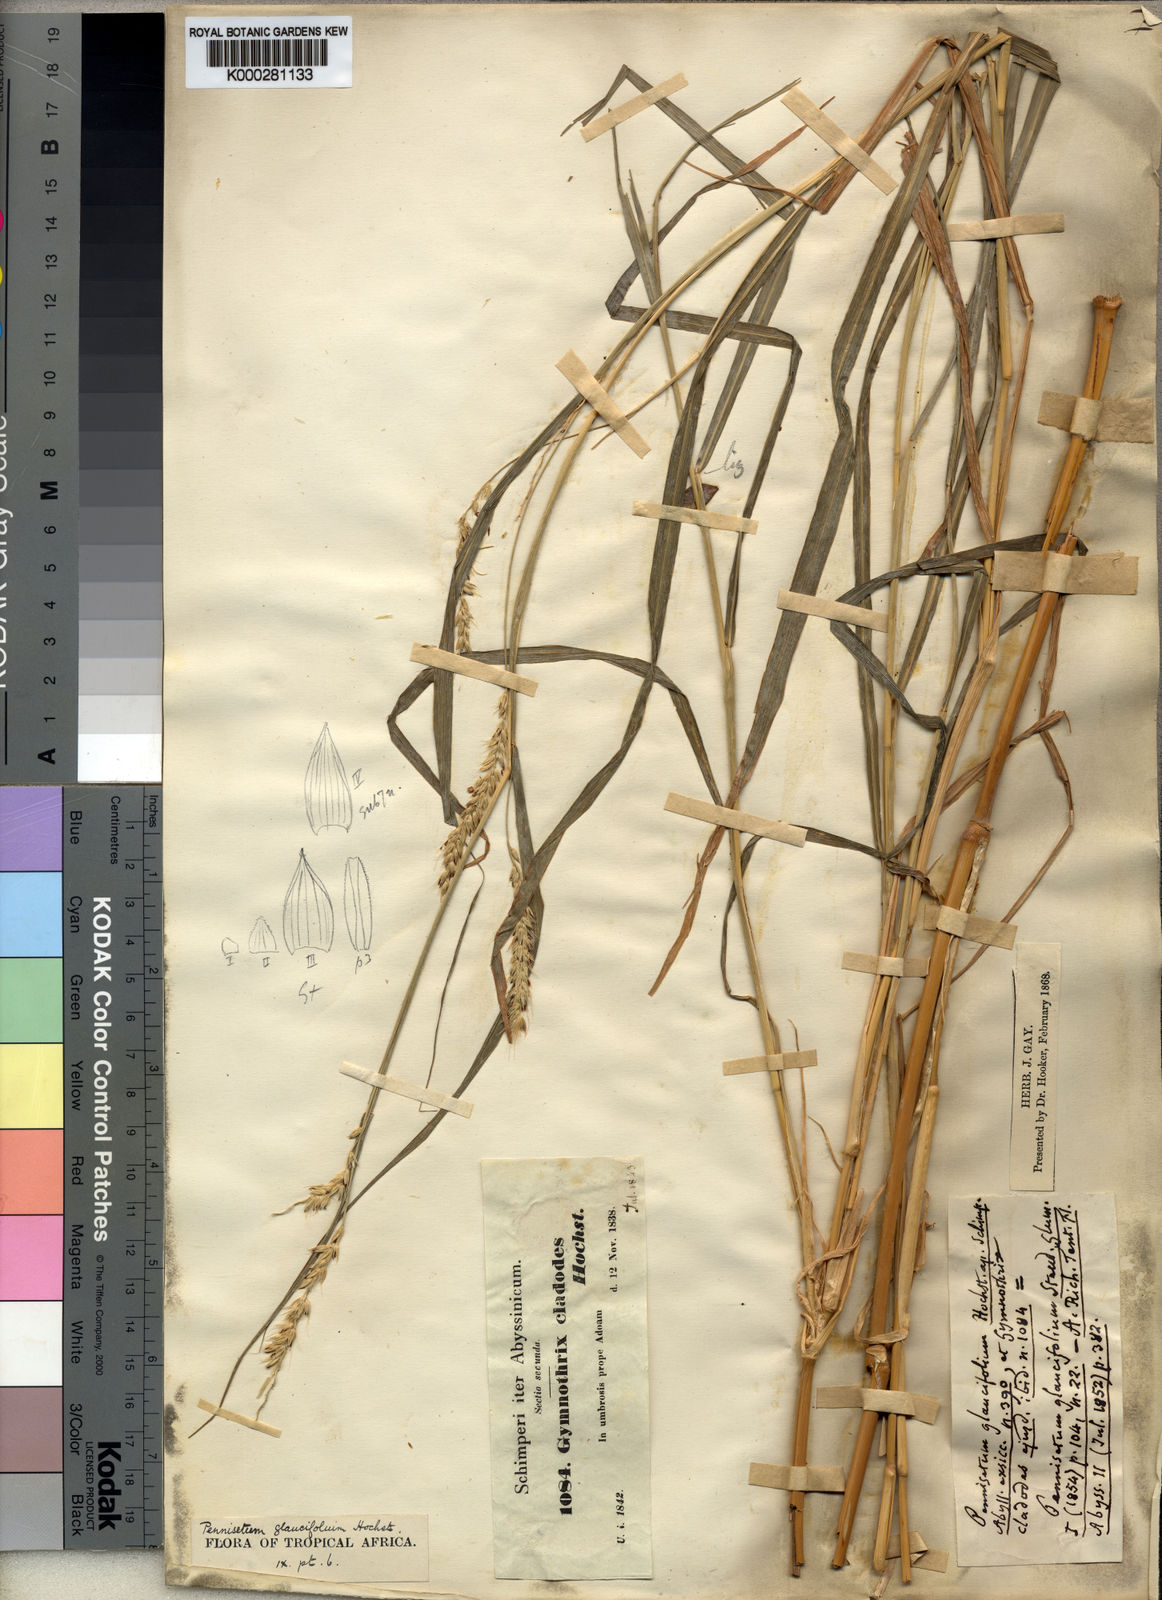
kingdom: Plantae
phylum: Tracheophyta
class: Liliopsida
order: Poales
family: Poaceae
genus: Cenchrus
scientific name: Cenchrus Pennisetum spec
